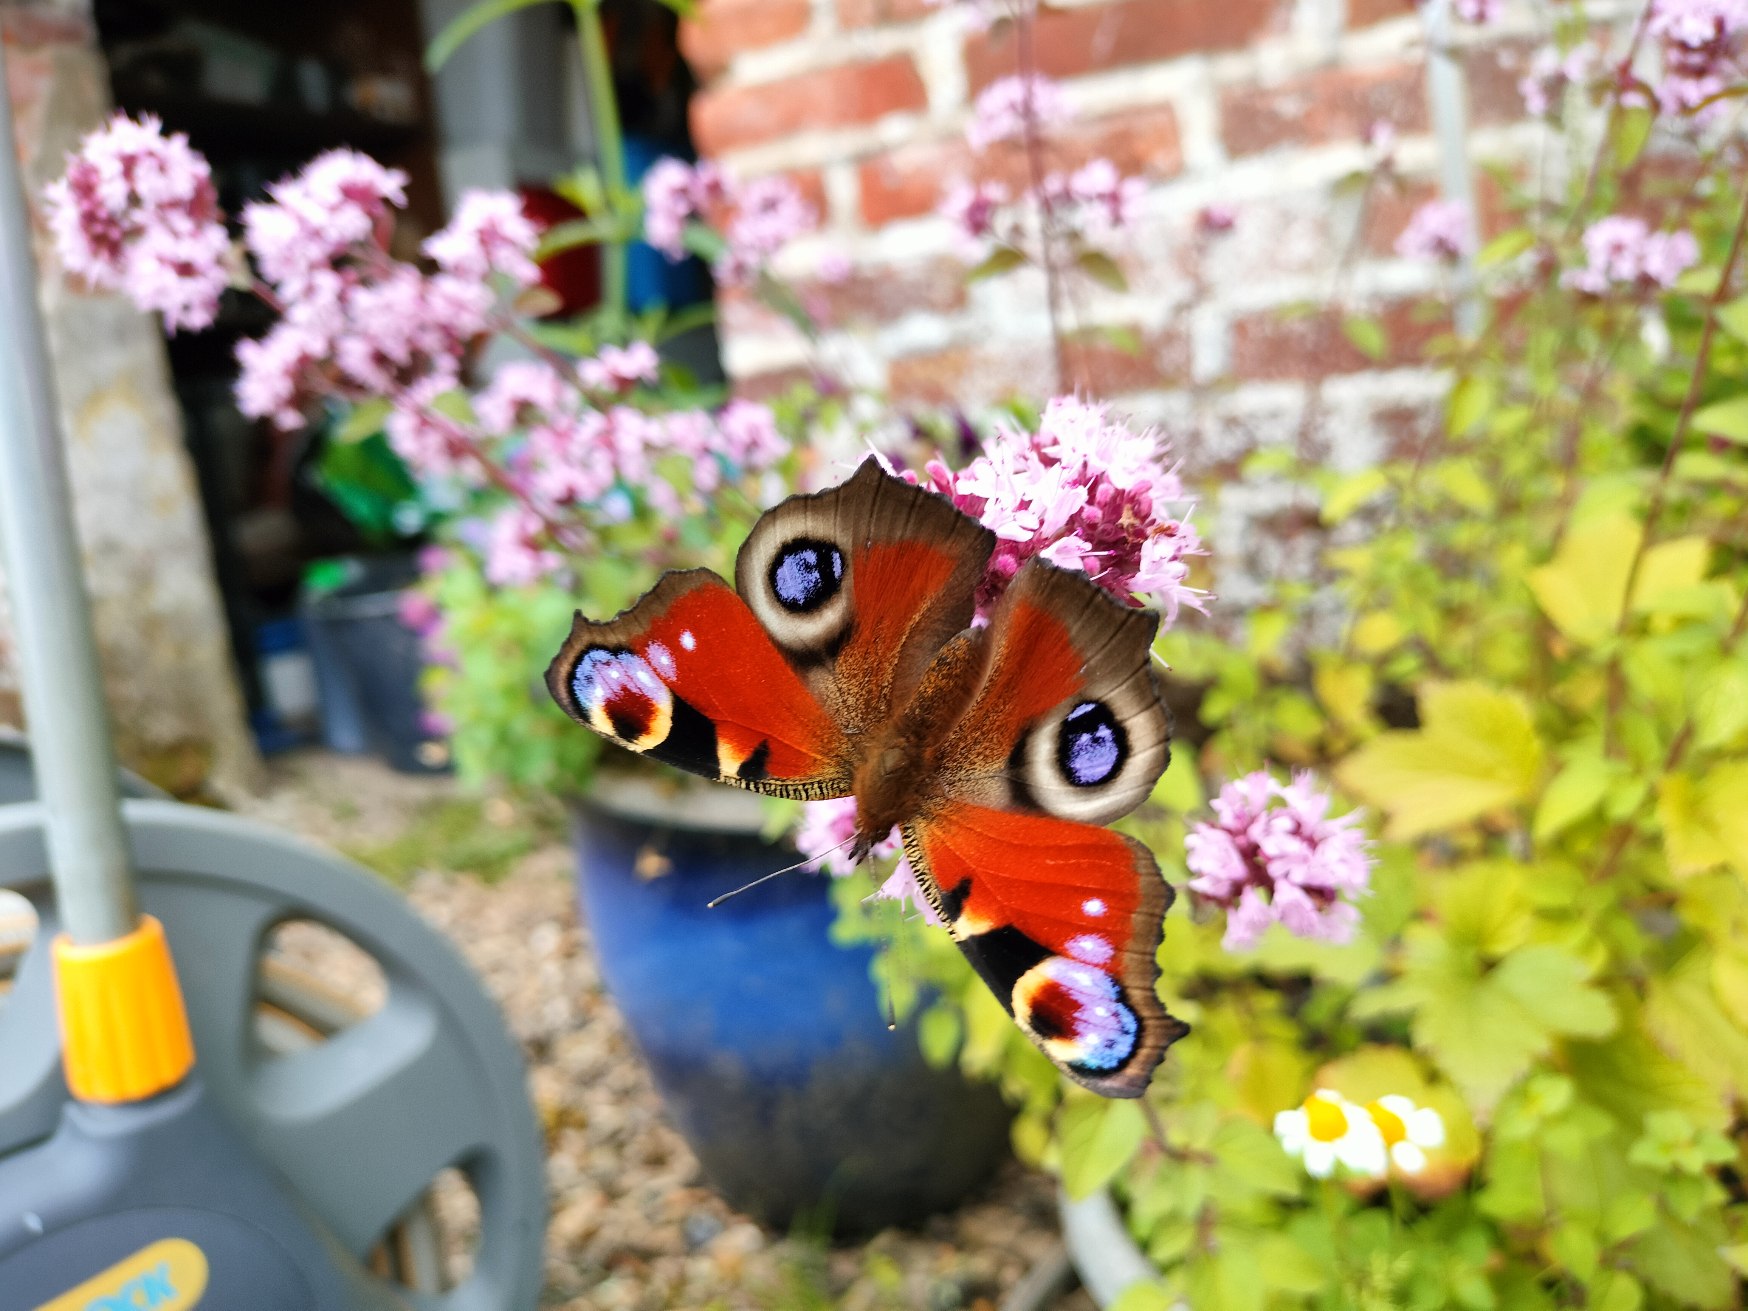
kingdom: Animalia
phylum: Arthropoda
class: Insecta
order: Lepidoptera
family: Nymphalidae
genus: Aglais
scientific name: Aglais io
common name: Dagpåfugleøje
